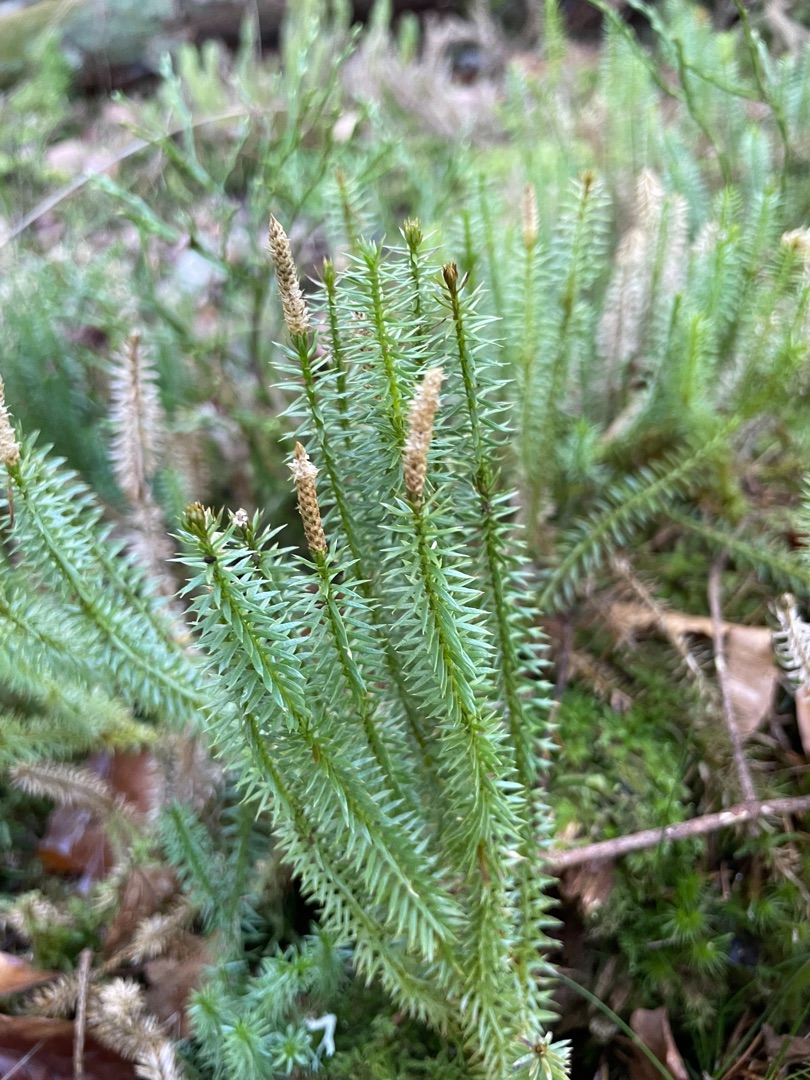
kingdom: Plantae
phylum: Tracheophyta
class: Lycopodiopsida
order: Lycopodiales
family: Lycopodiaceae
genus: Spinulum
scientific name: Spinulum annotinum
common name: Femradet ulvefod
